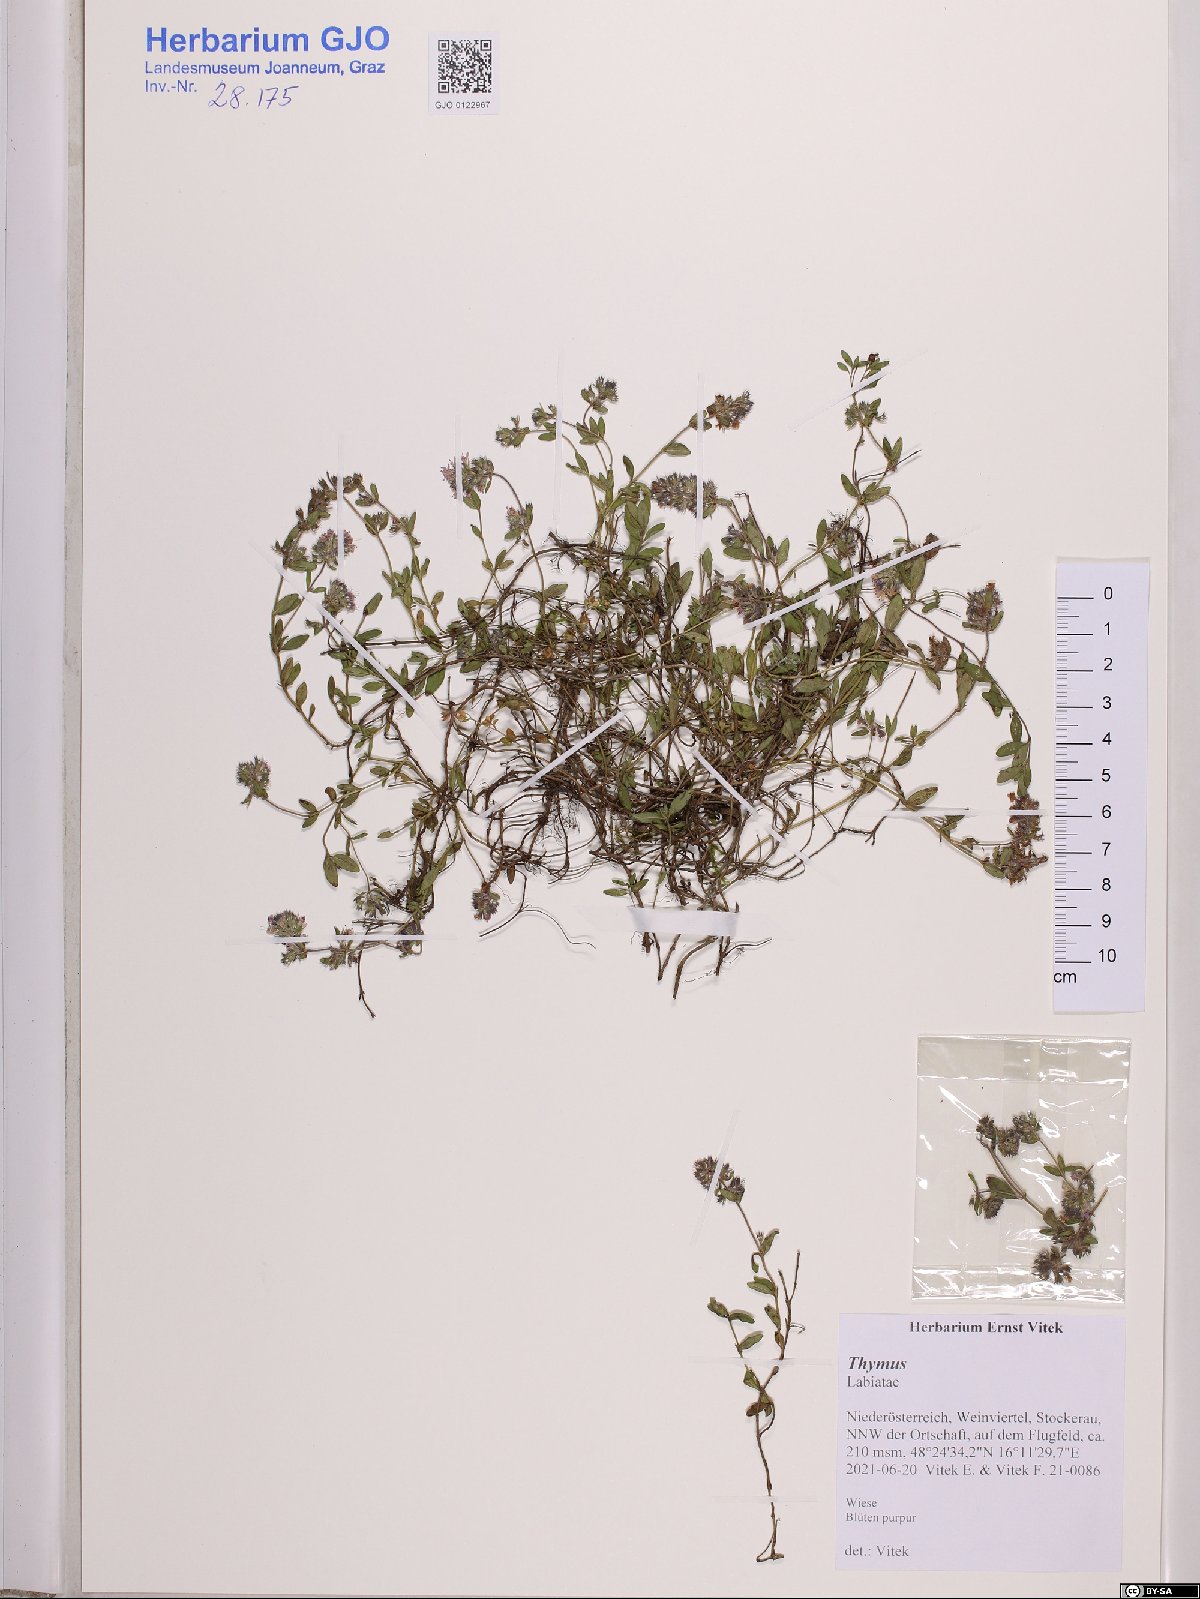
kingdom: Plantae
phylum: Tracheophyta
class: Magnoliopsida
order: Lamiales
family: Lamiaceae
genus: Thymus
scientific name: Thymus
